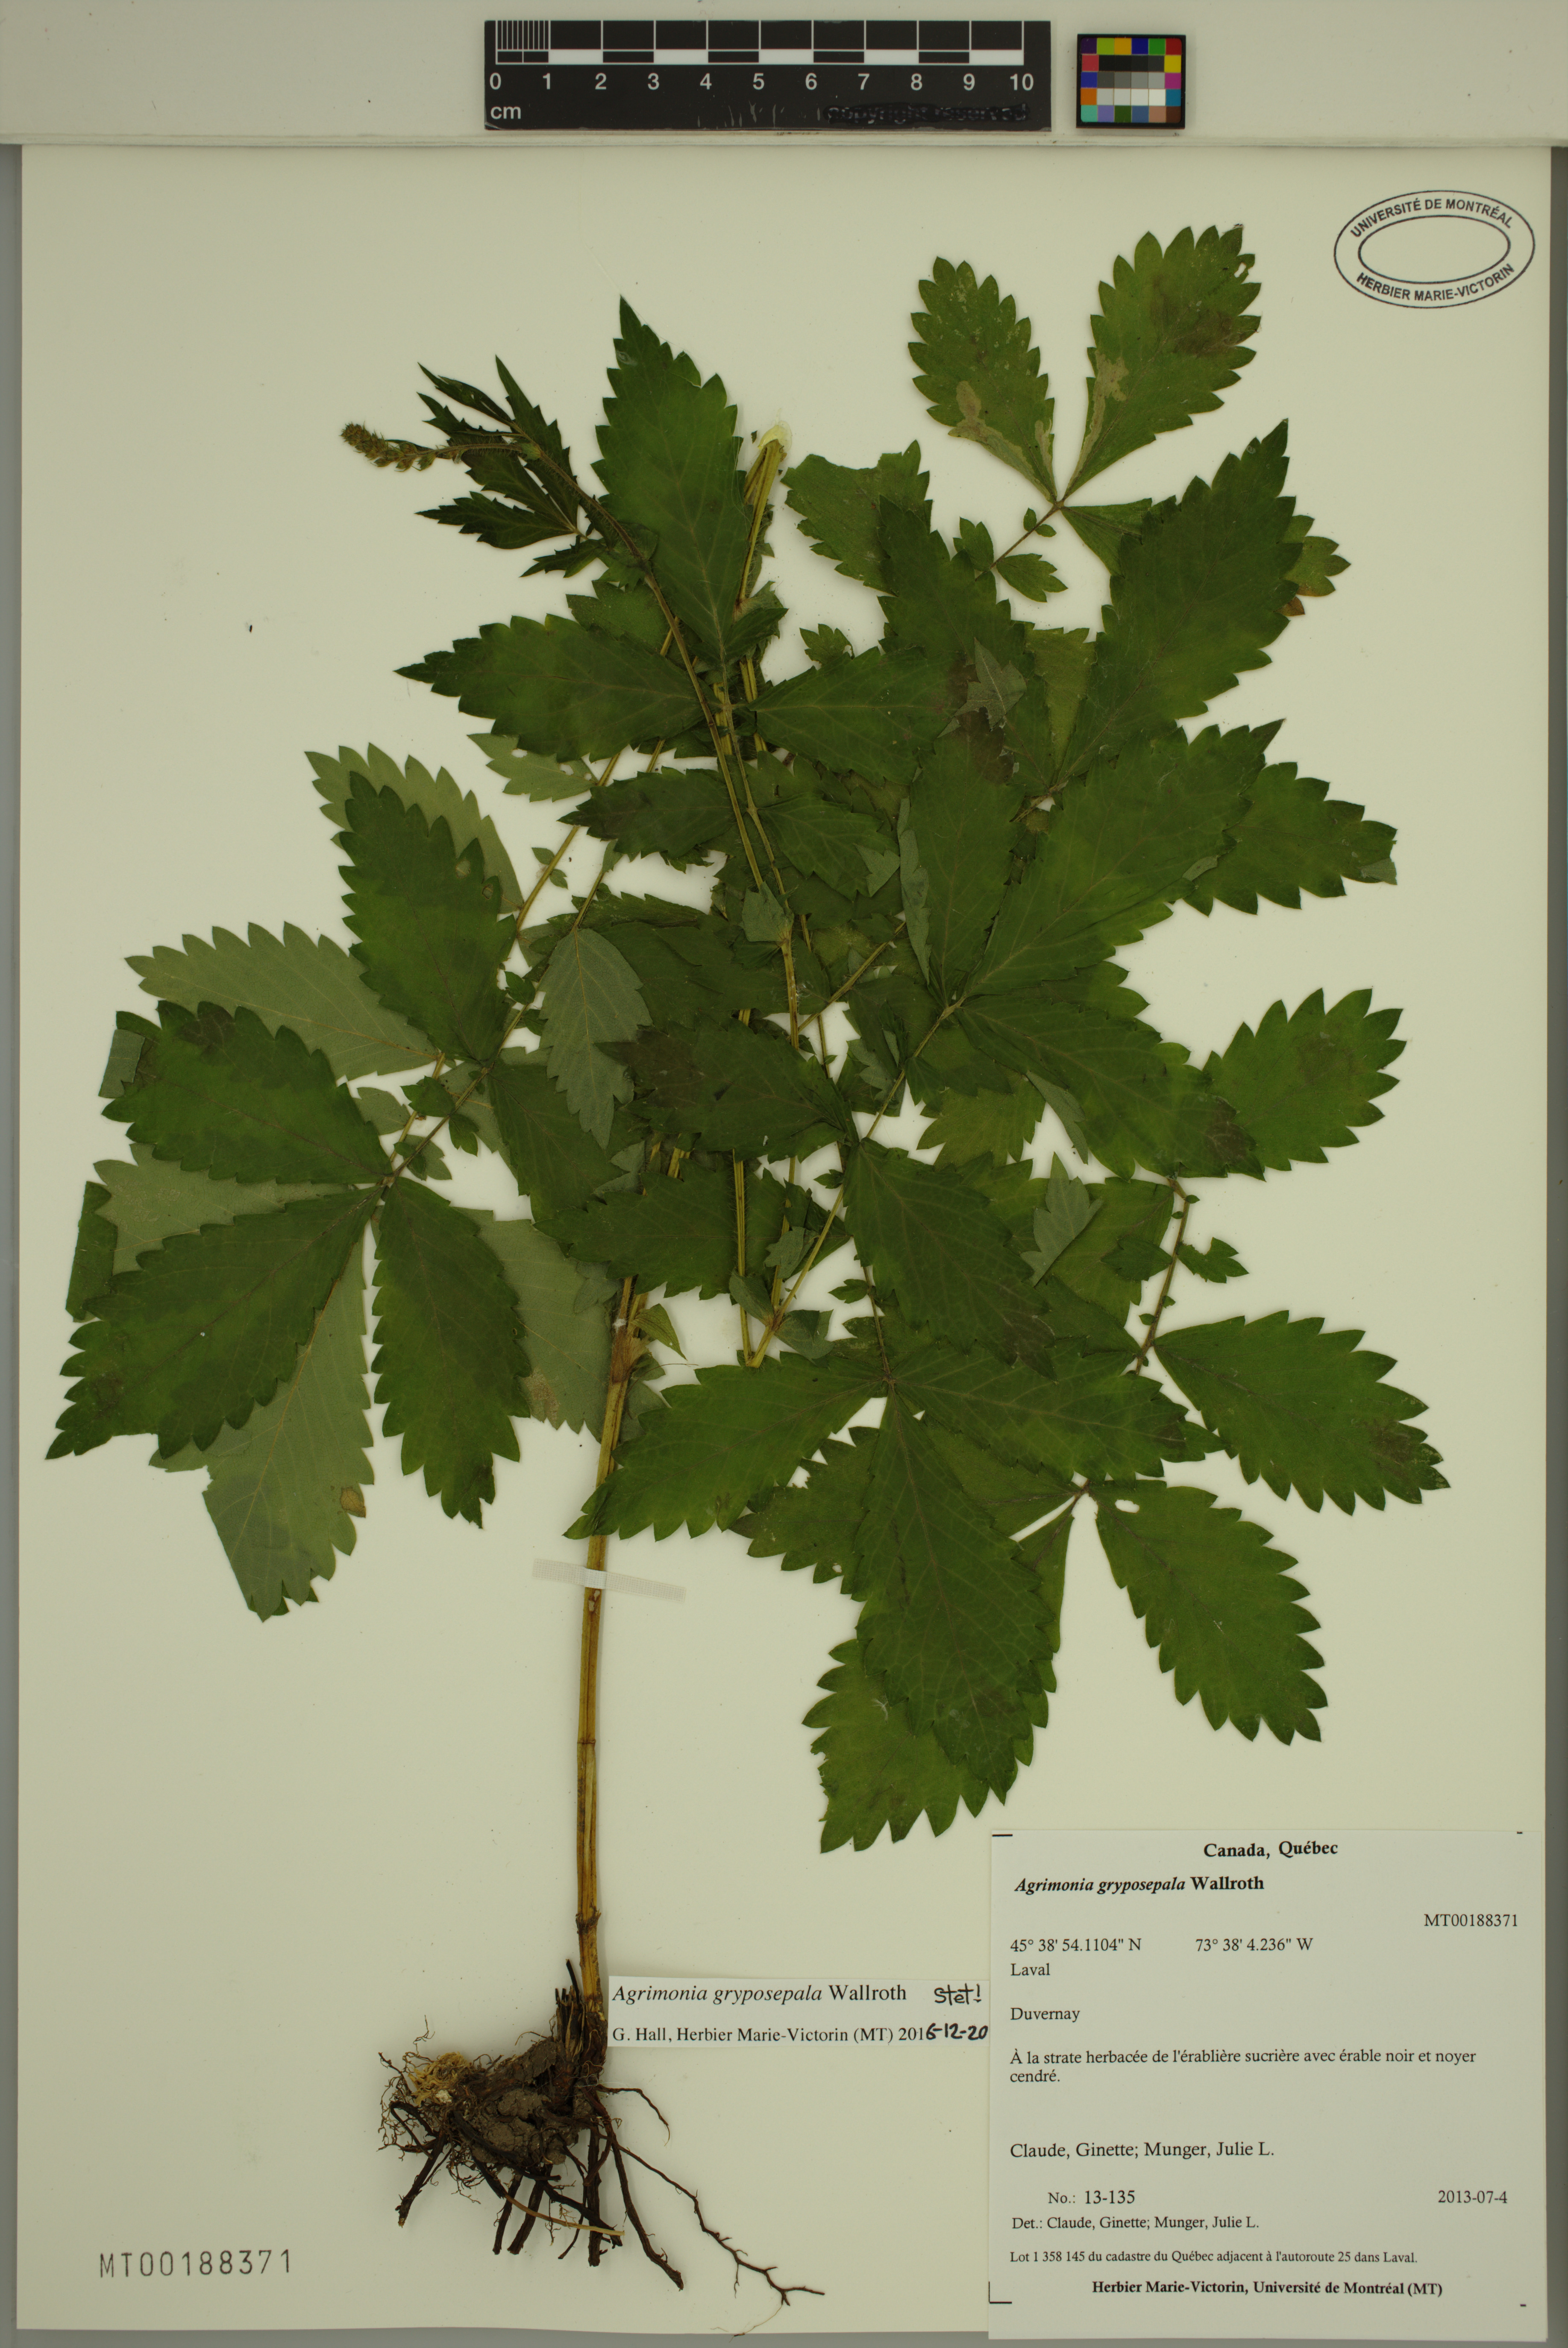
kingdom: Plantae
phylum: Tracheophyta
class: Magnoliopsida
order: Rosales
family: Rosaceae
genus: Agrimonia
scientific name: Agrimonia gryposepala
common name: Common agrimony
